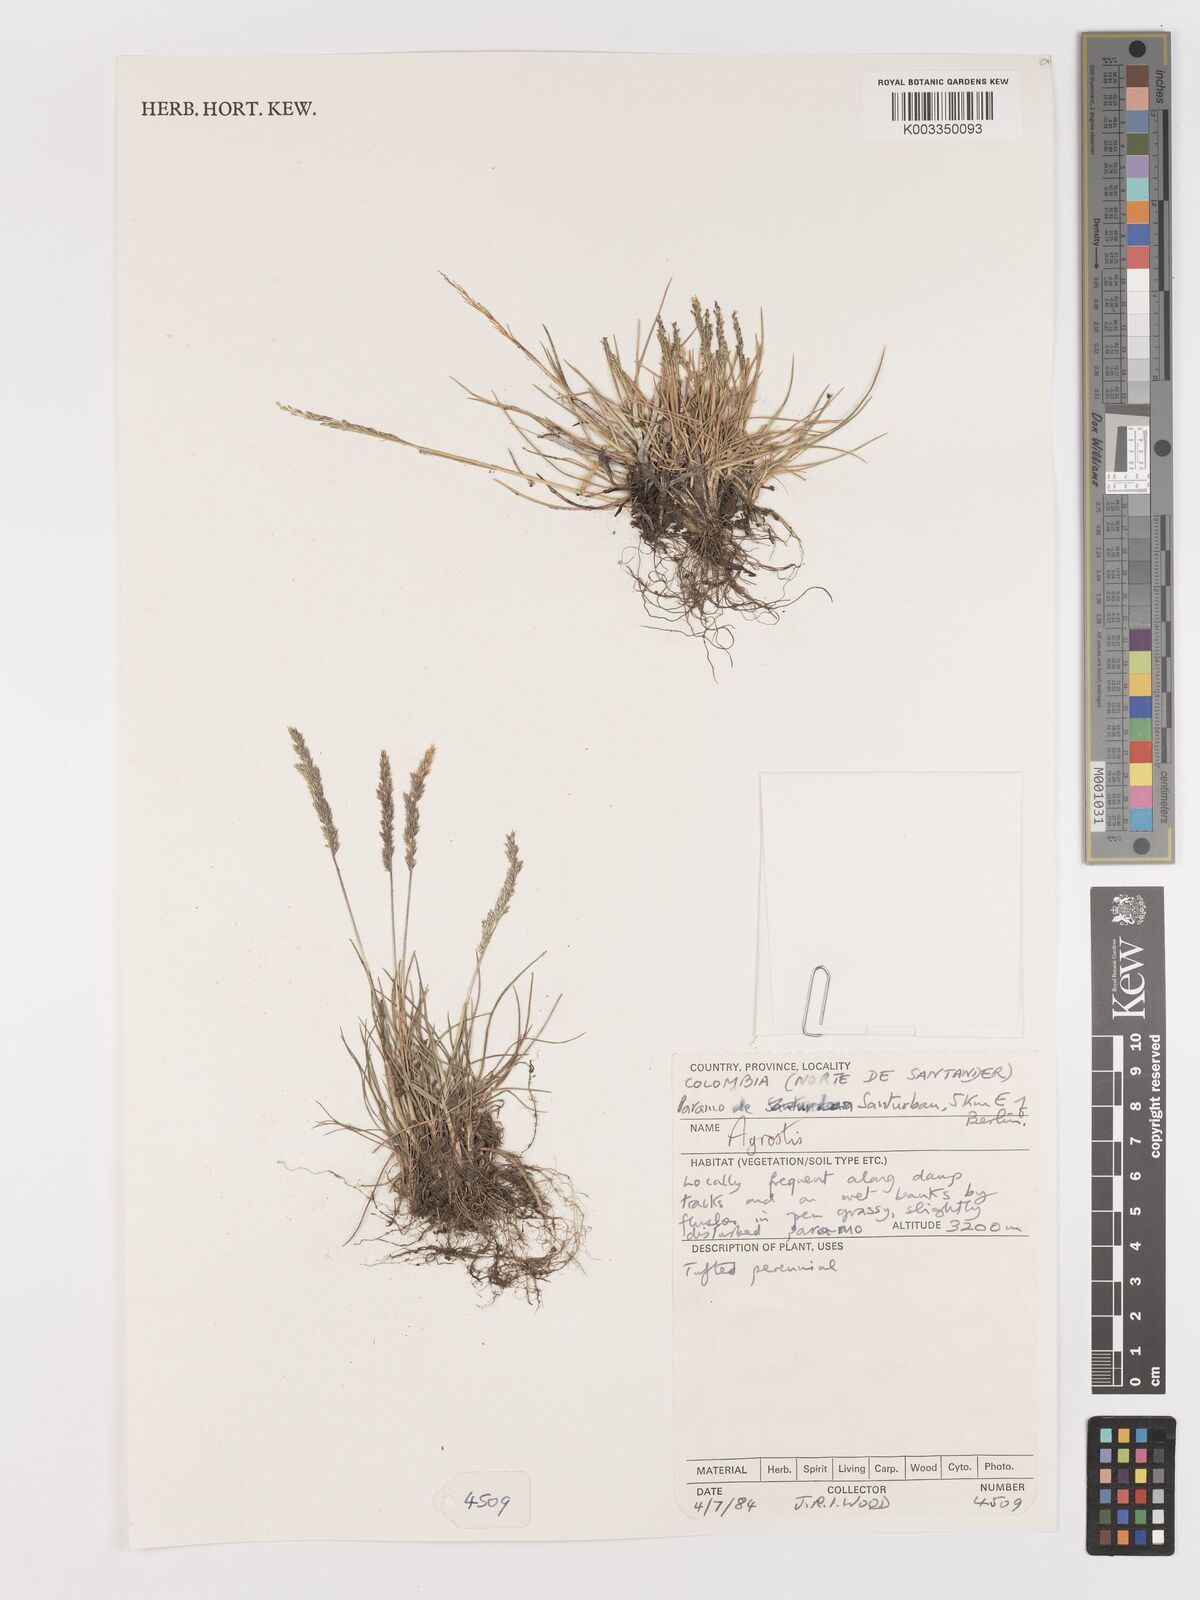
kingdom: Plantae
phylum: Tracheophyta
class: Liliopsida
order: Poales
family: Poaceae
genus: Agrostis
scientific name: Agrostis
